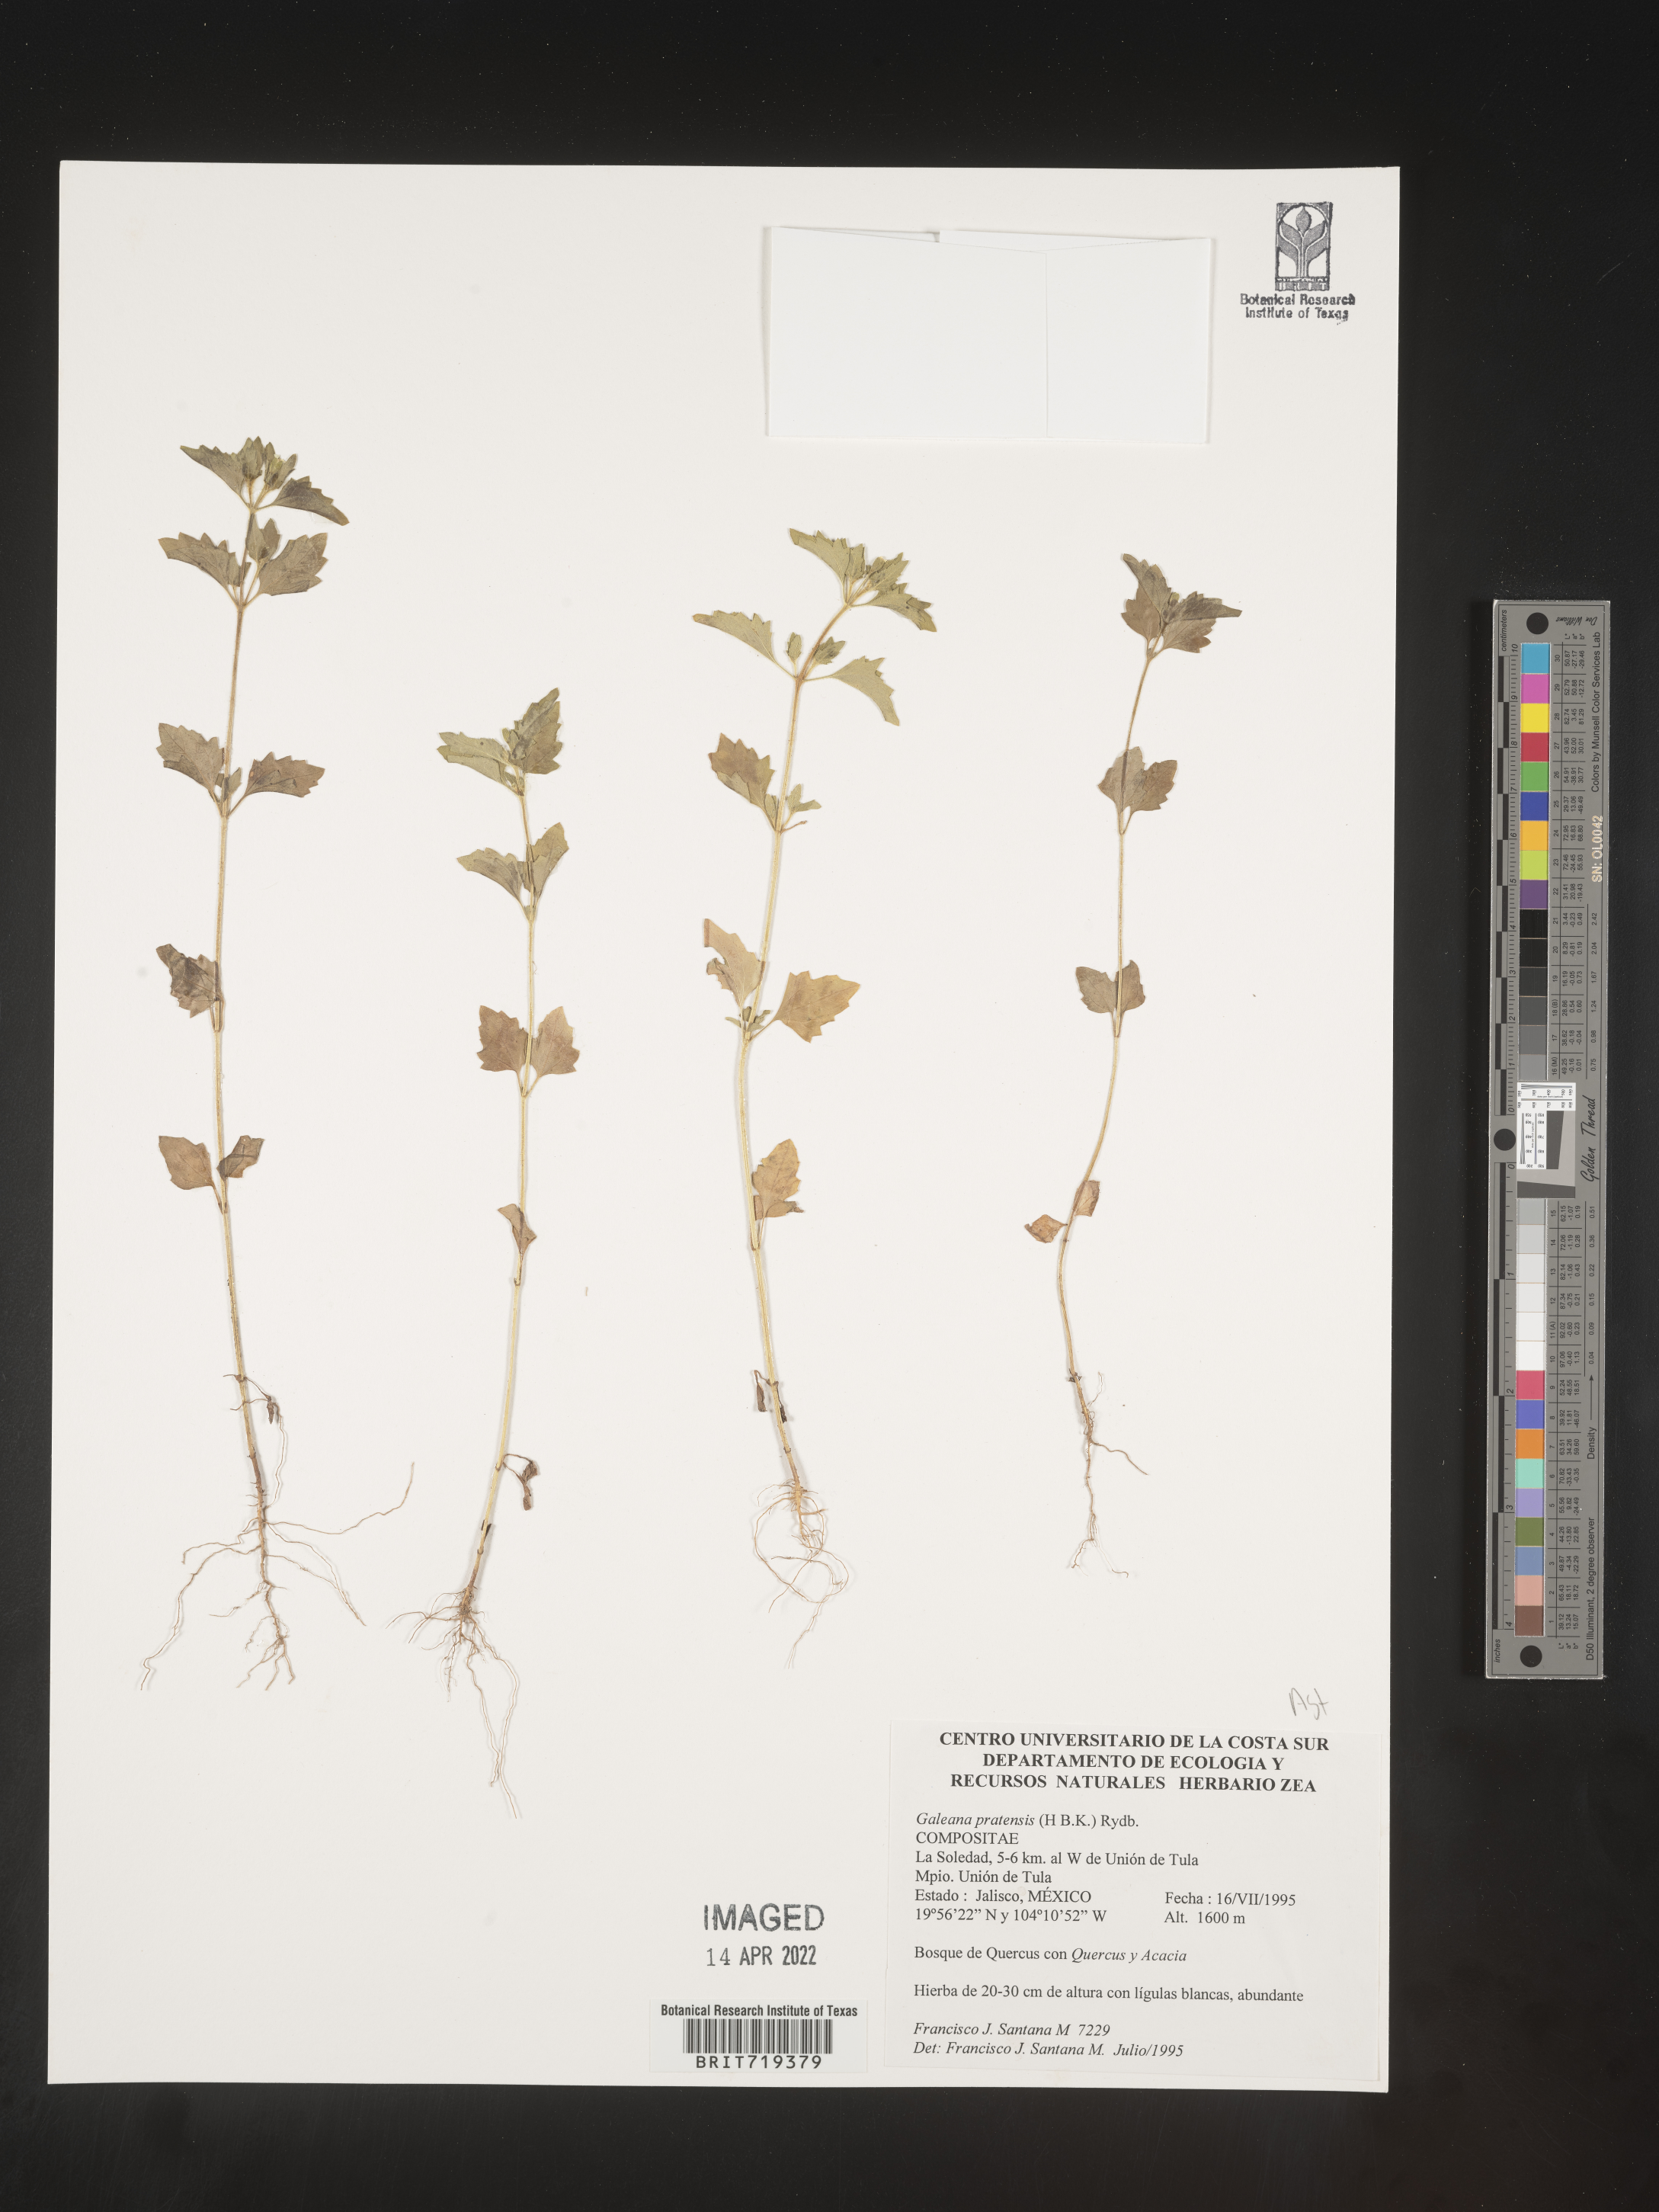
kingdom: Plantae
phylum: Tracheophyta
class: Magnoliopsida
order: Asterales
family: Asteraceae
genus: Galeana
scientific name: Galeana
